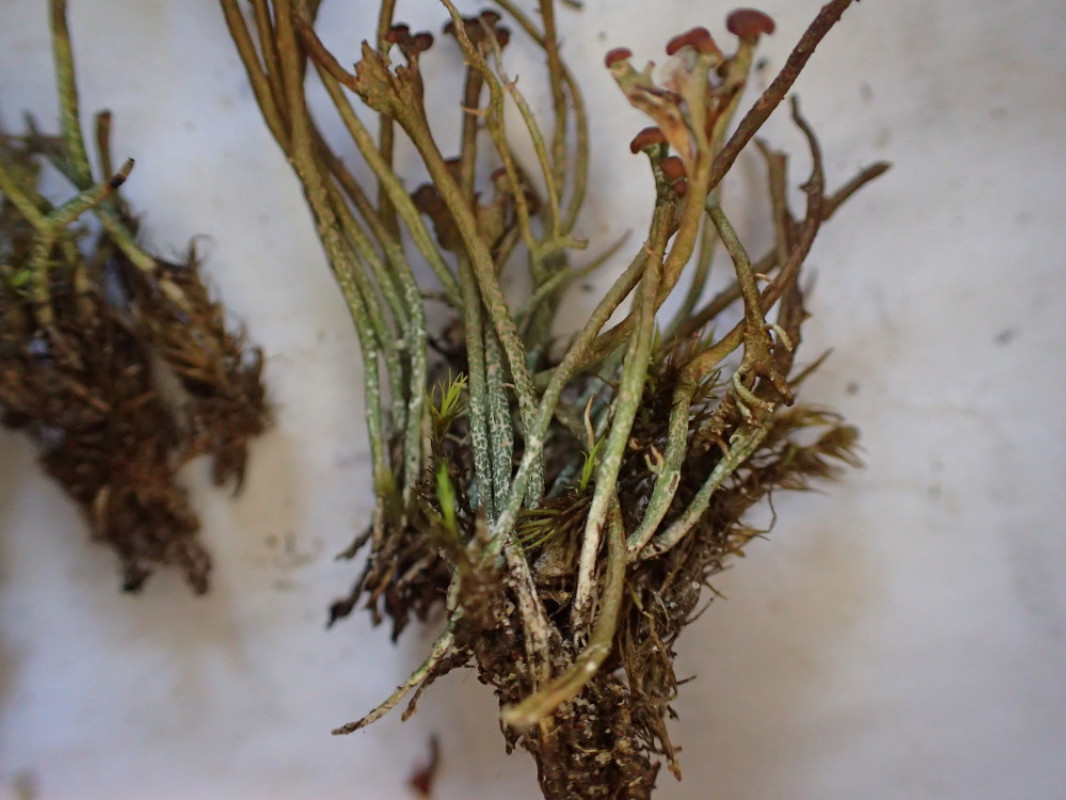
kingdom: Fungi
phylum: Ascomycota
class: Lecanoromycetes
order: Lecanorales
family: Cladoniaceae
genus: Cladonia
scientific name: Cladonia gracilis
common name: slank bægerlav
